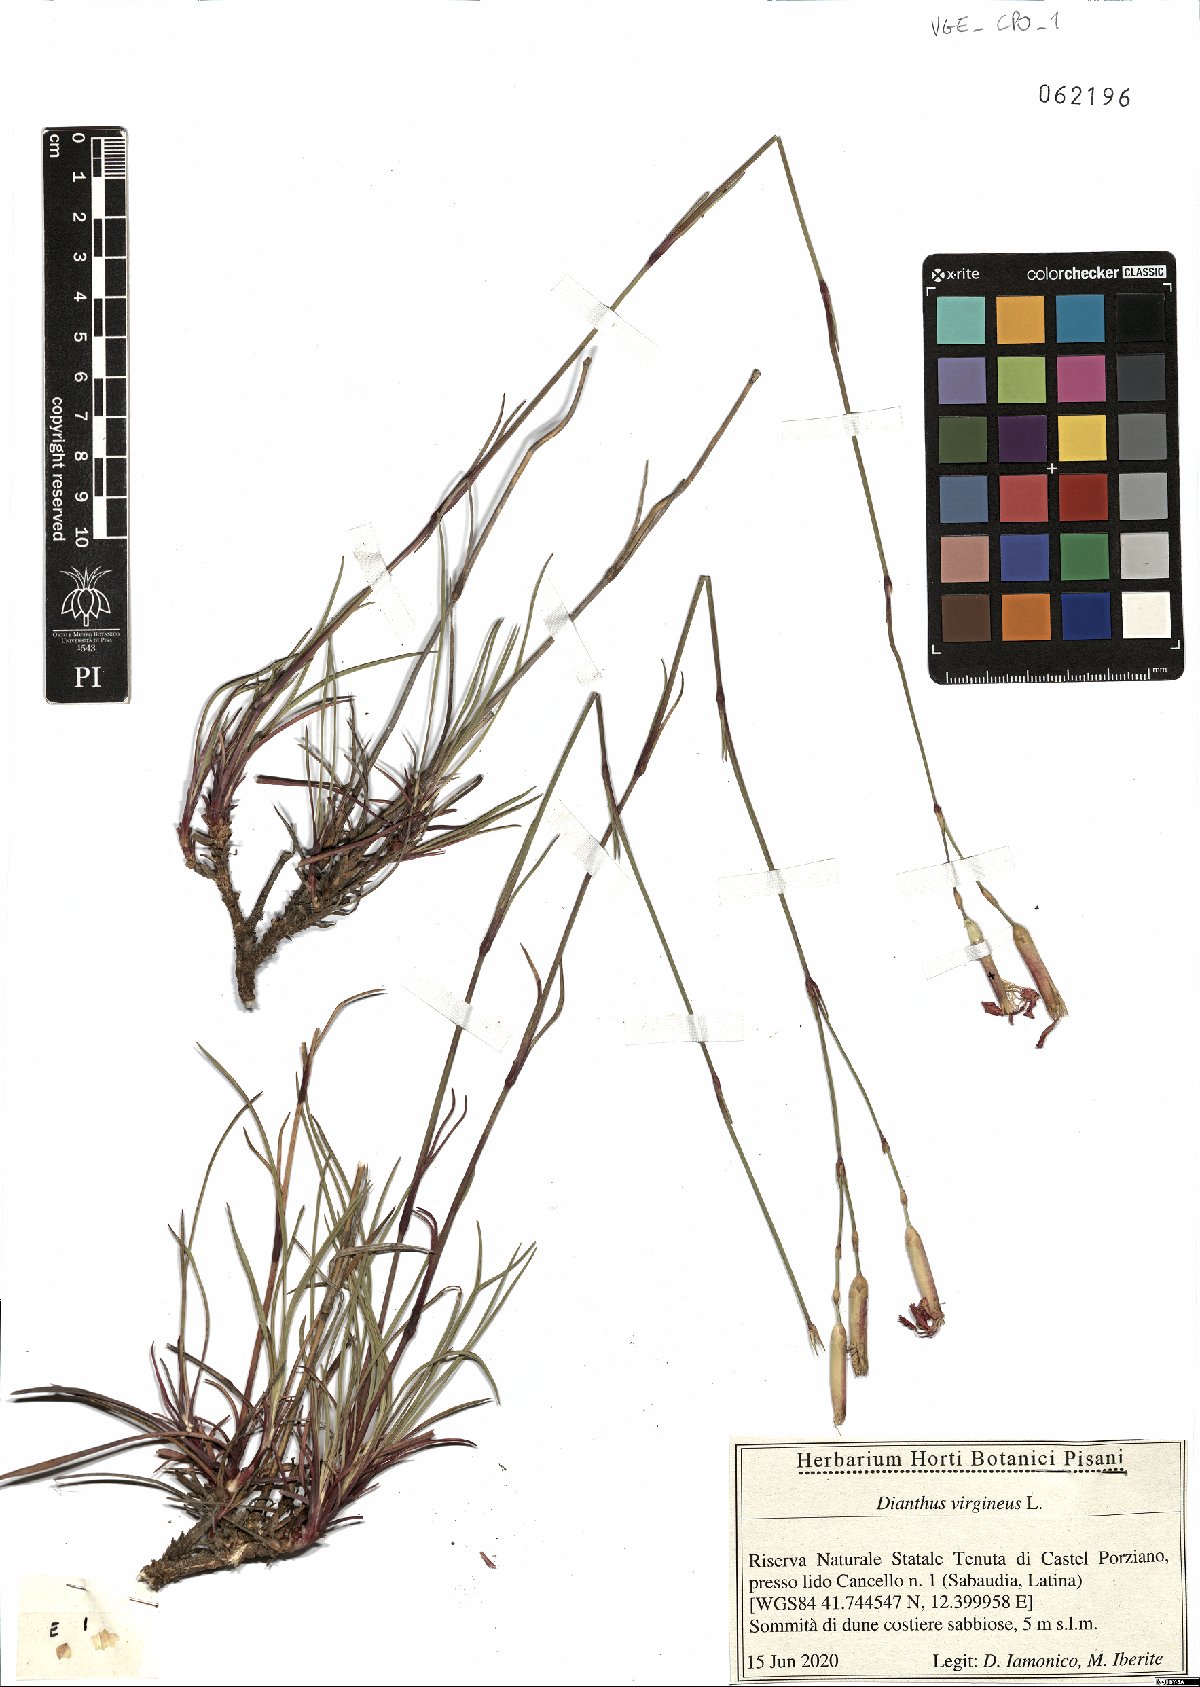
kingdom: Plantae
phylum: Tracheophyta
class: Magnoliopsida
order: Caryophyllales
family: Caryophyllaceae
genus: Dianthus
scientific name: Dianthus virgineus
